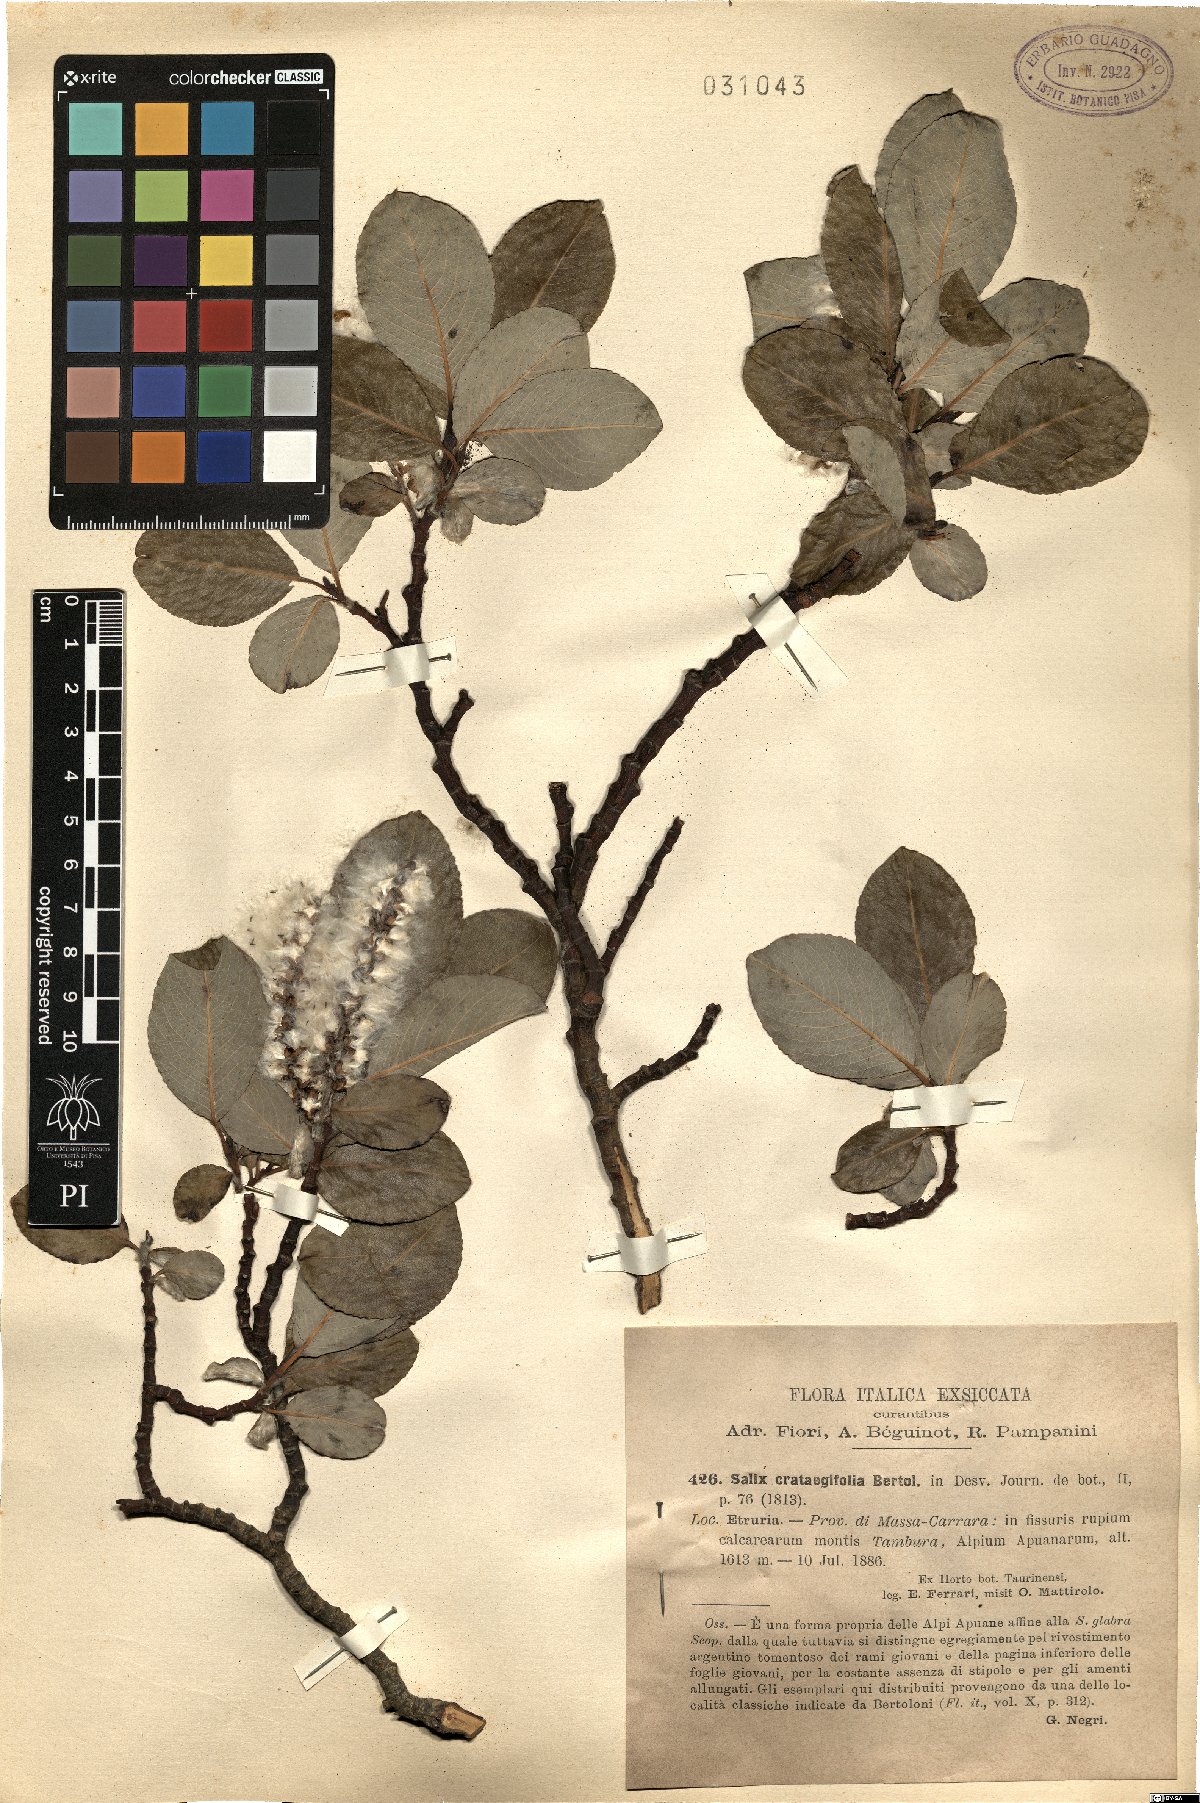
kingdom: Plantae
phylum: Tracheophyta
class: Magnoliopsida
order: Malpighiales
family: Salicaceae
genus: Salix
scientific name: Salix crataegifolia
